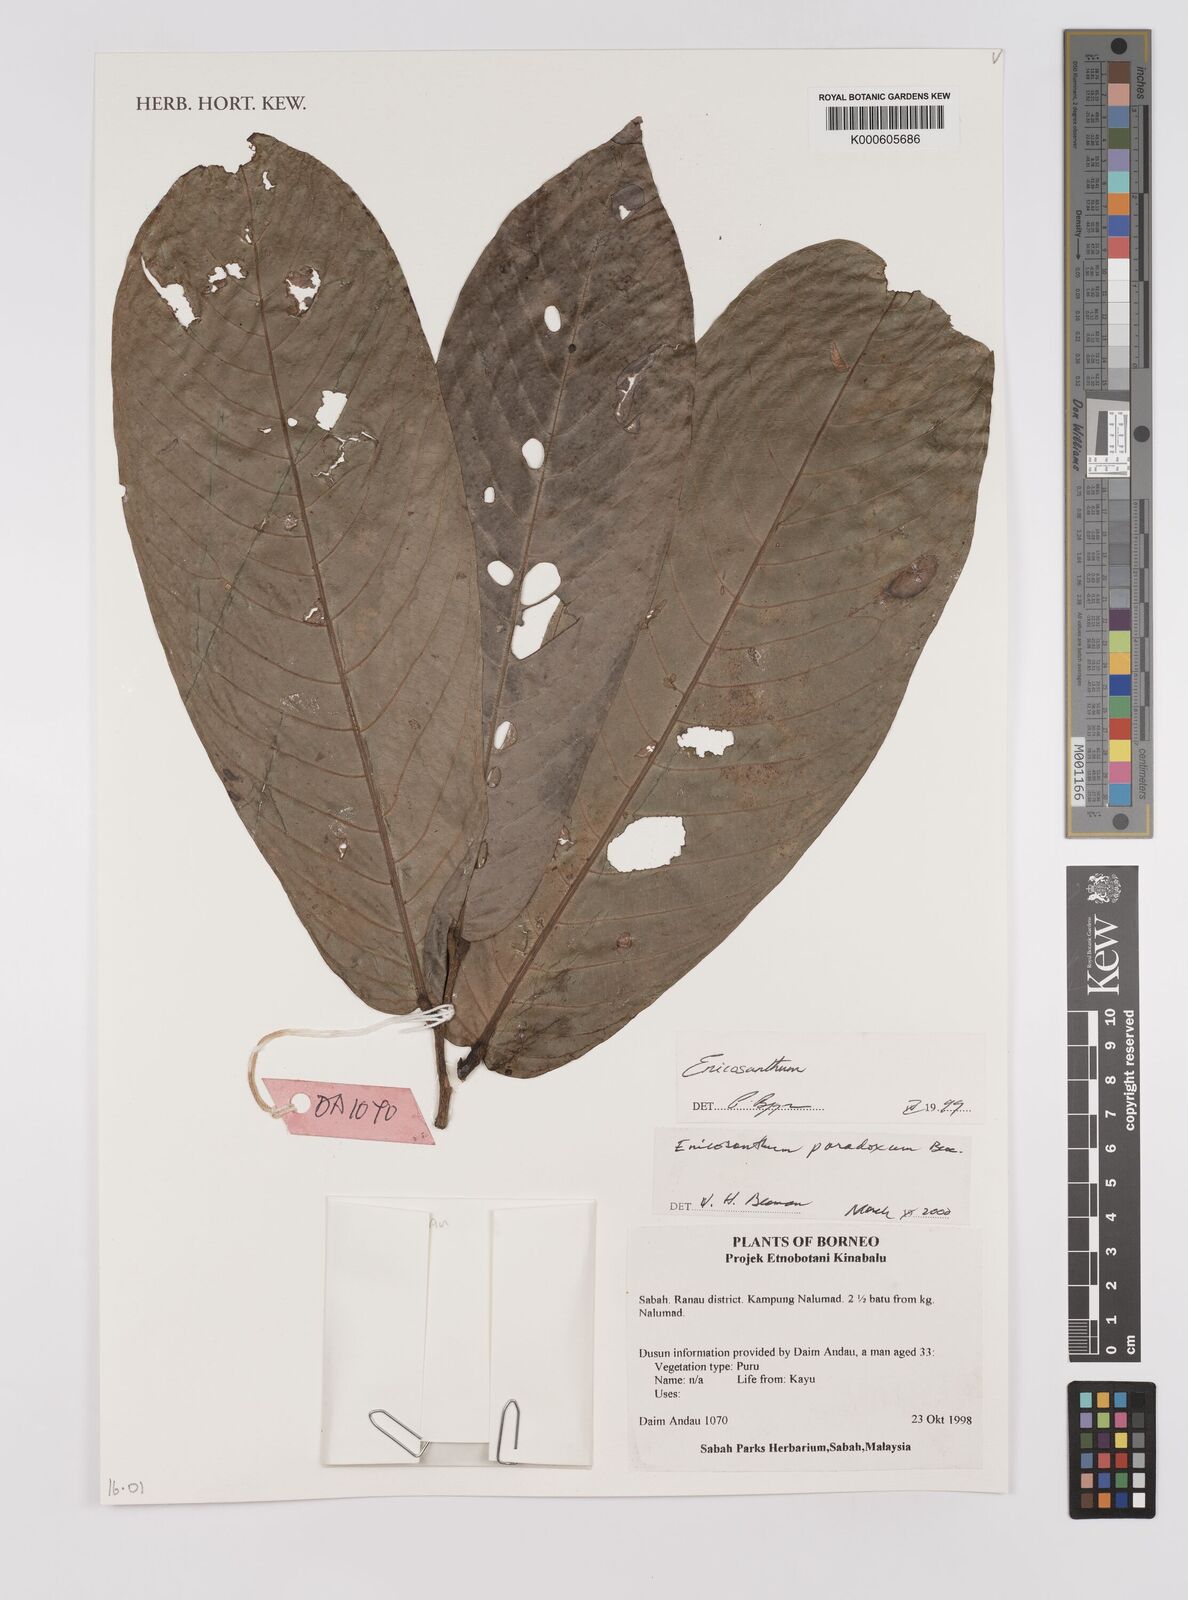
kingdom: Plantae
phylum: Tracheophyta
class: Magnoliopsida
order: Magnoliales
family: Annonaceae
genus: Enicosanthum
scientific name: Enicosanthum paradoxum
